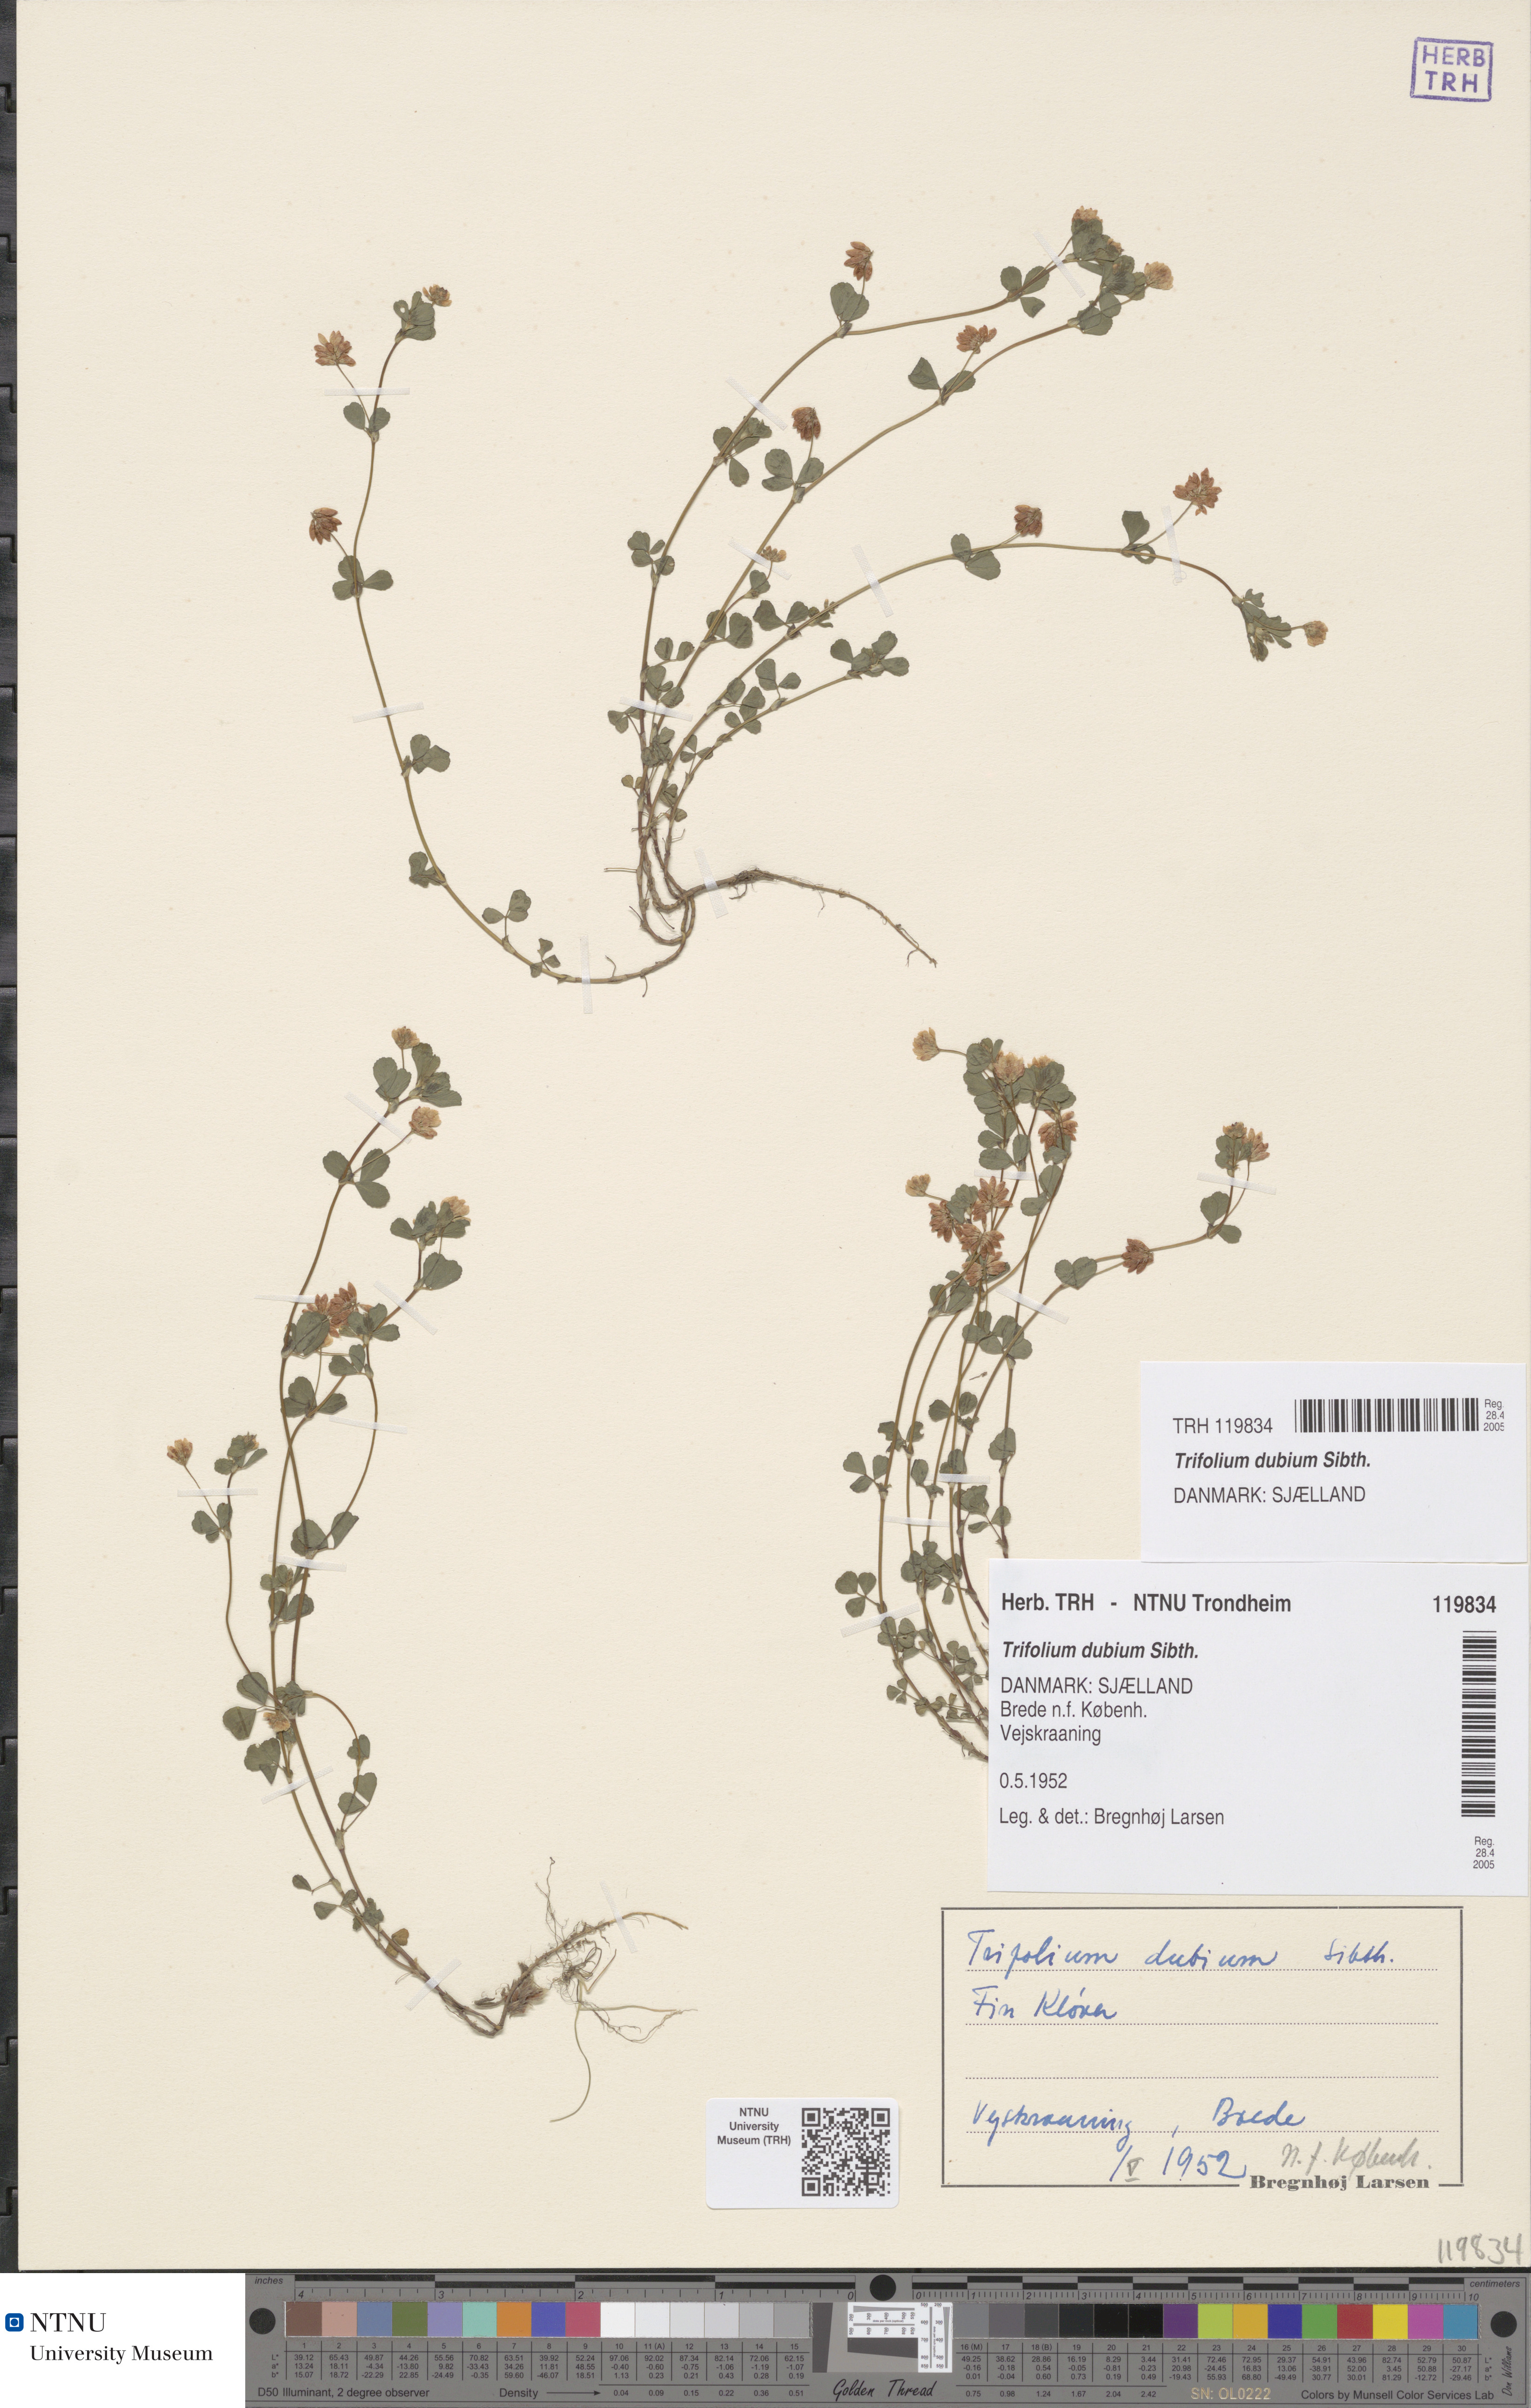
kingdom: Plantae
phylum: Tracheophyta
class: Magnoliopsida
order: Fabales
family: Fabaceae
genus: Trifolium
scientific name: Trifolium dubium
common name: Suckling clover
